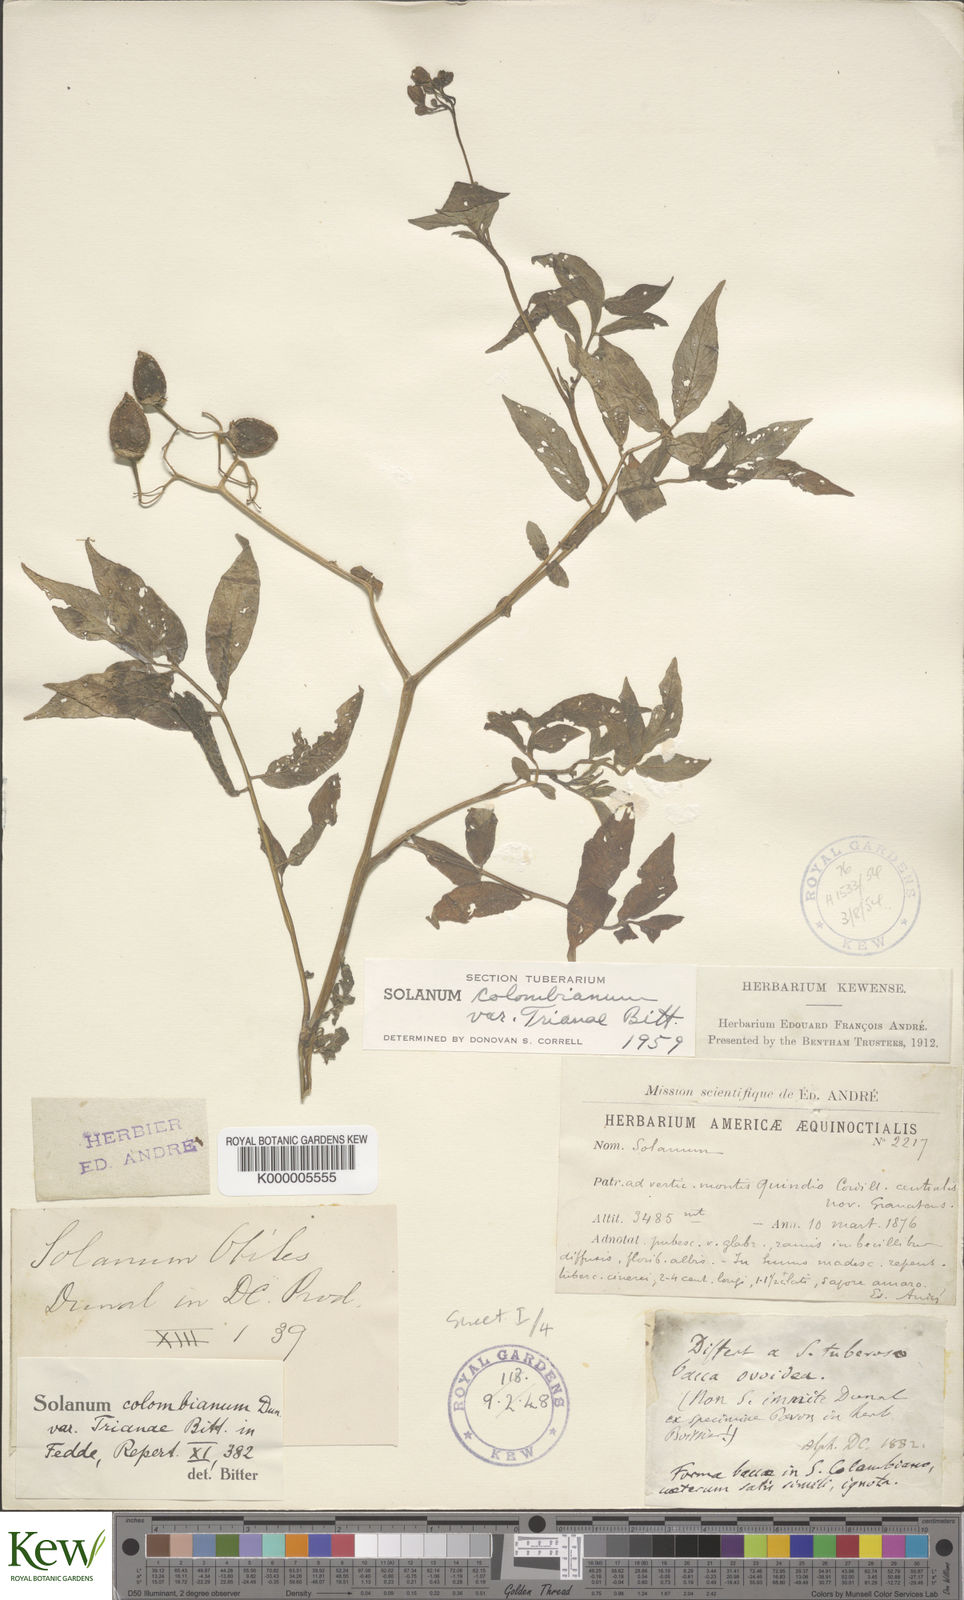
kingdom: Plantae
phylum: Tracheophyta
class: Magnoliopsida
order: Solanales
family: Solanaceae
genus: Solanum
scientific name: Solanum colombianum
